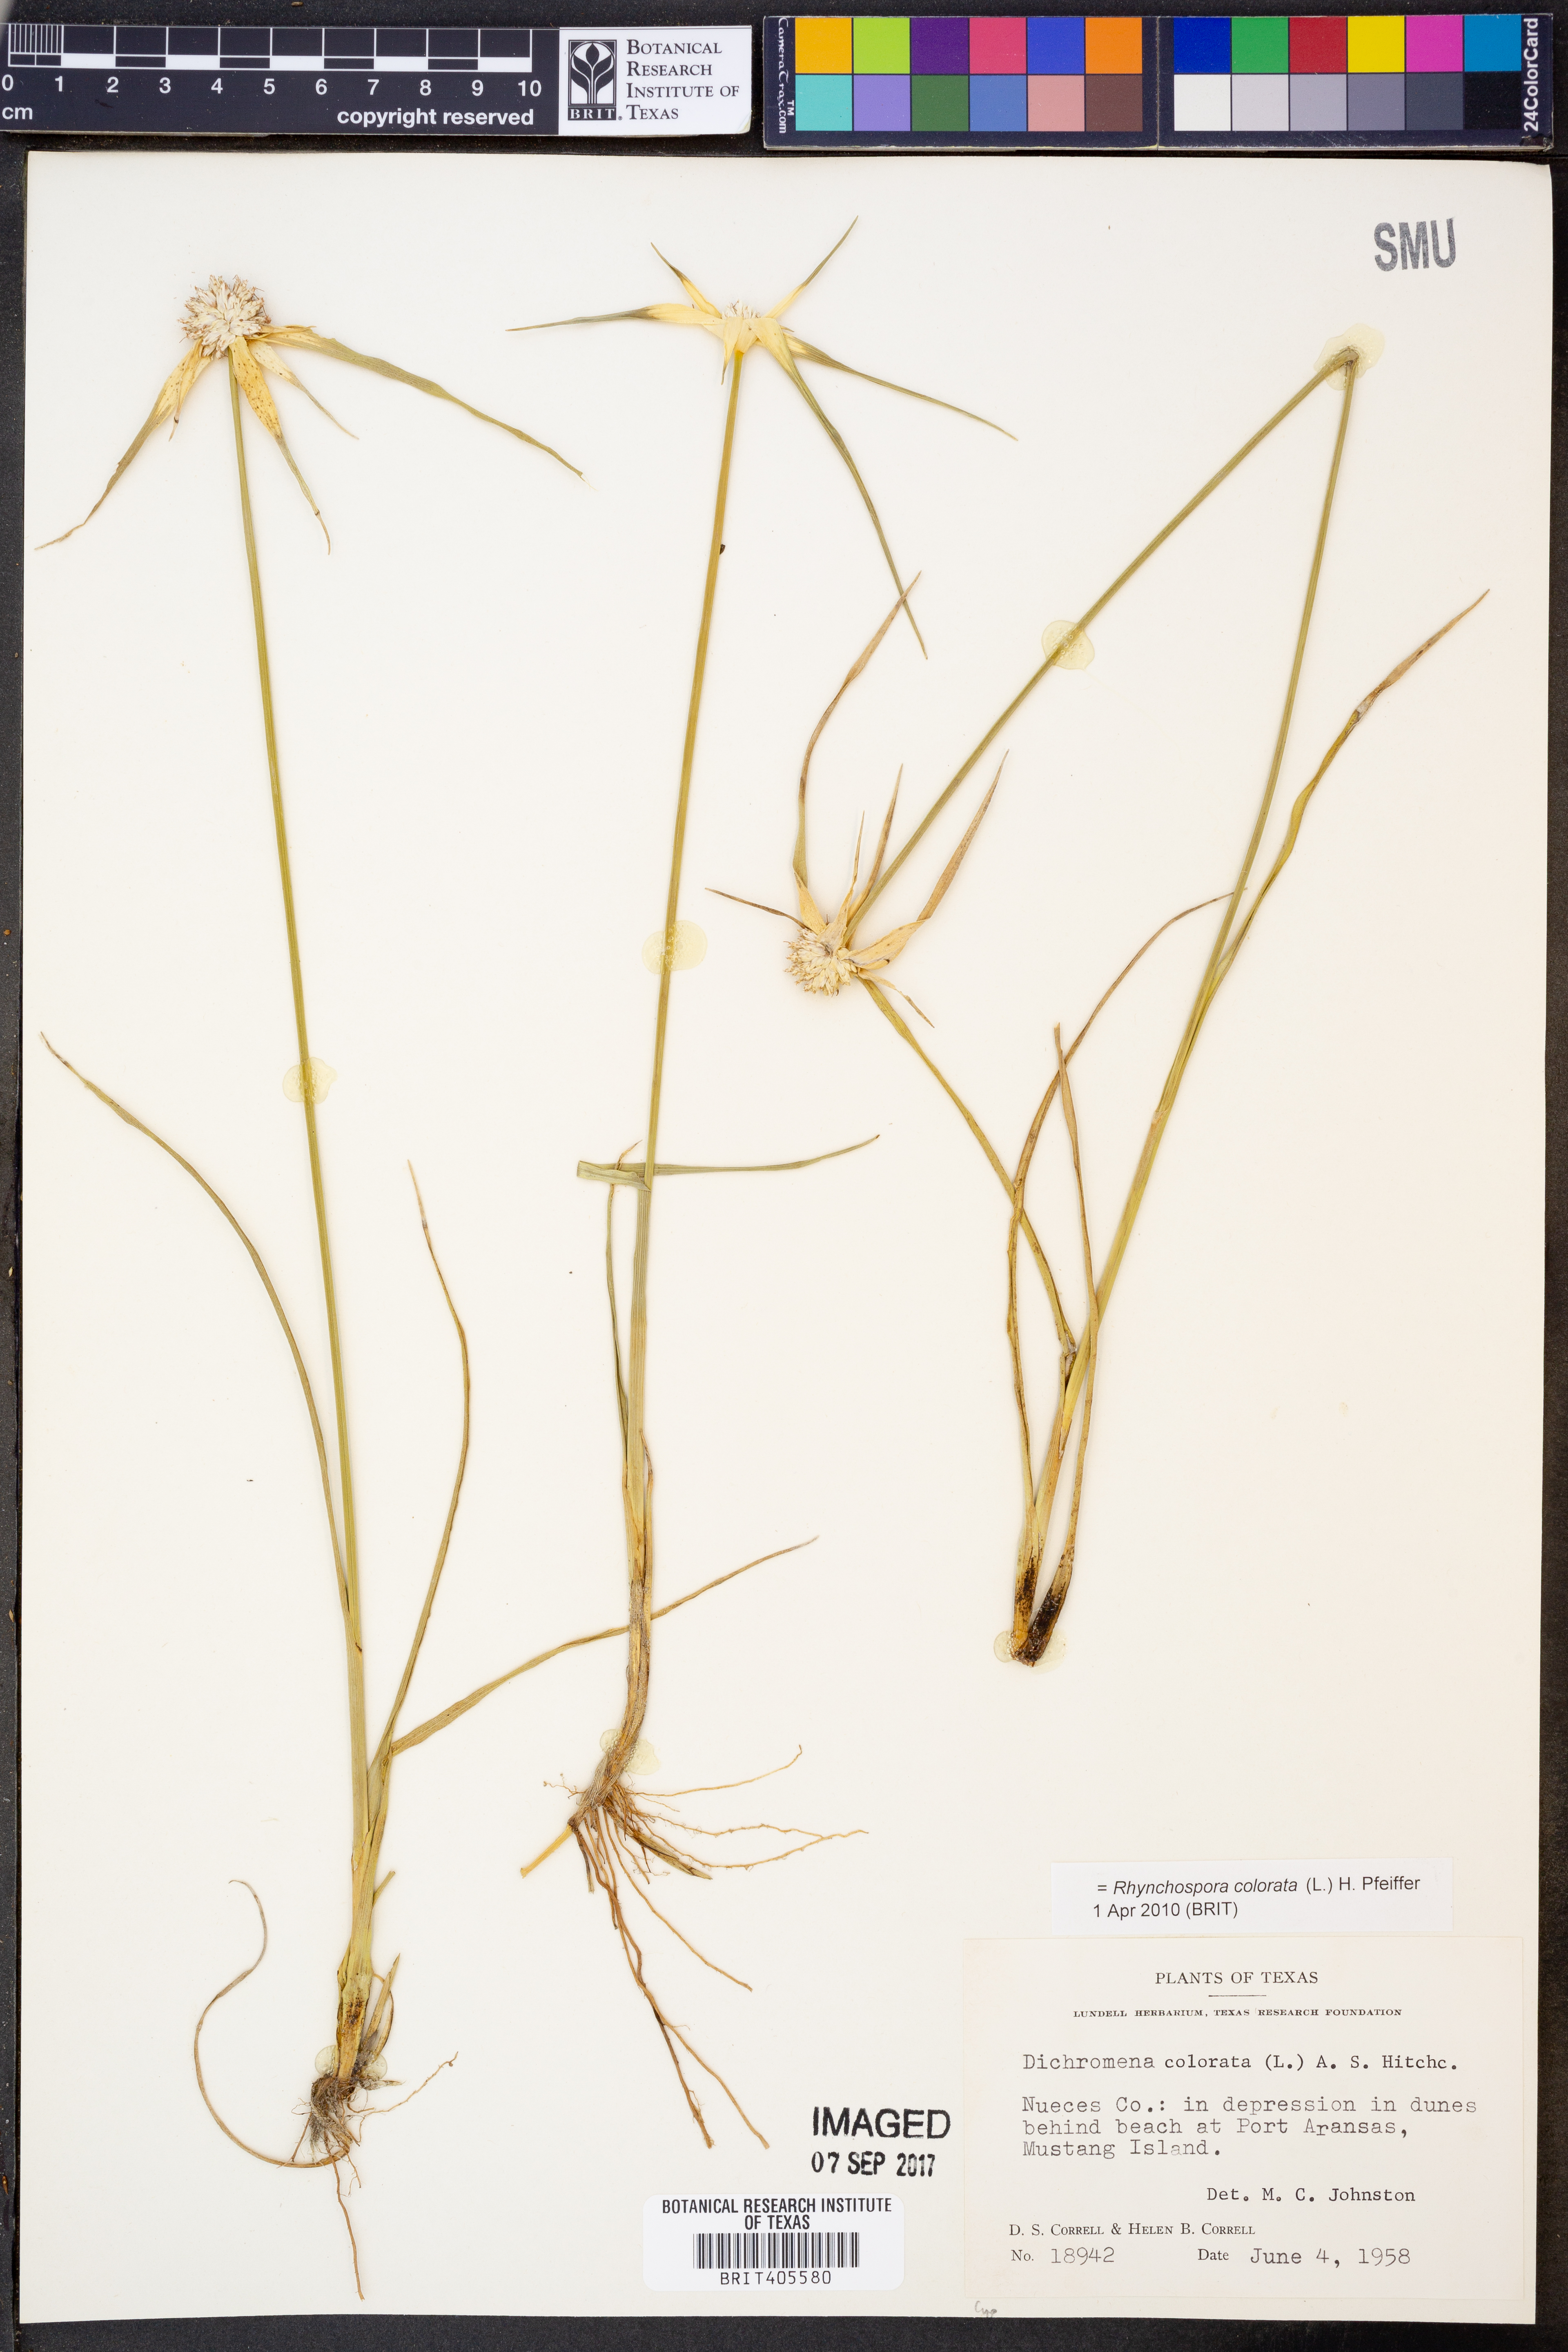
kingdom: Plantae
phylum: Tracheophyta
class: Liliopsida
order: Poales
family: Cyperaceae
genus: Rhynchospora
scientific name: Rhynchospora colorata
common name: Star sedge
